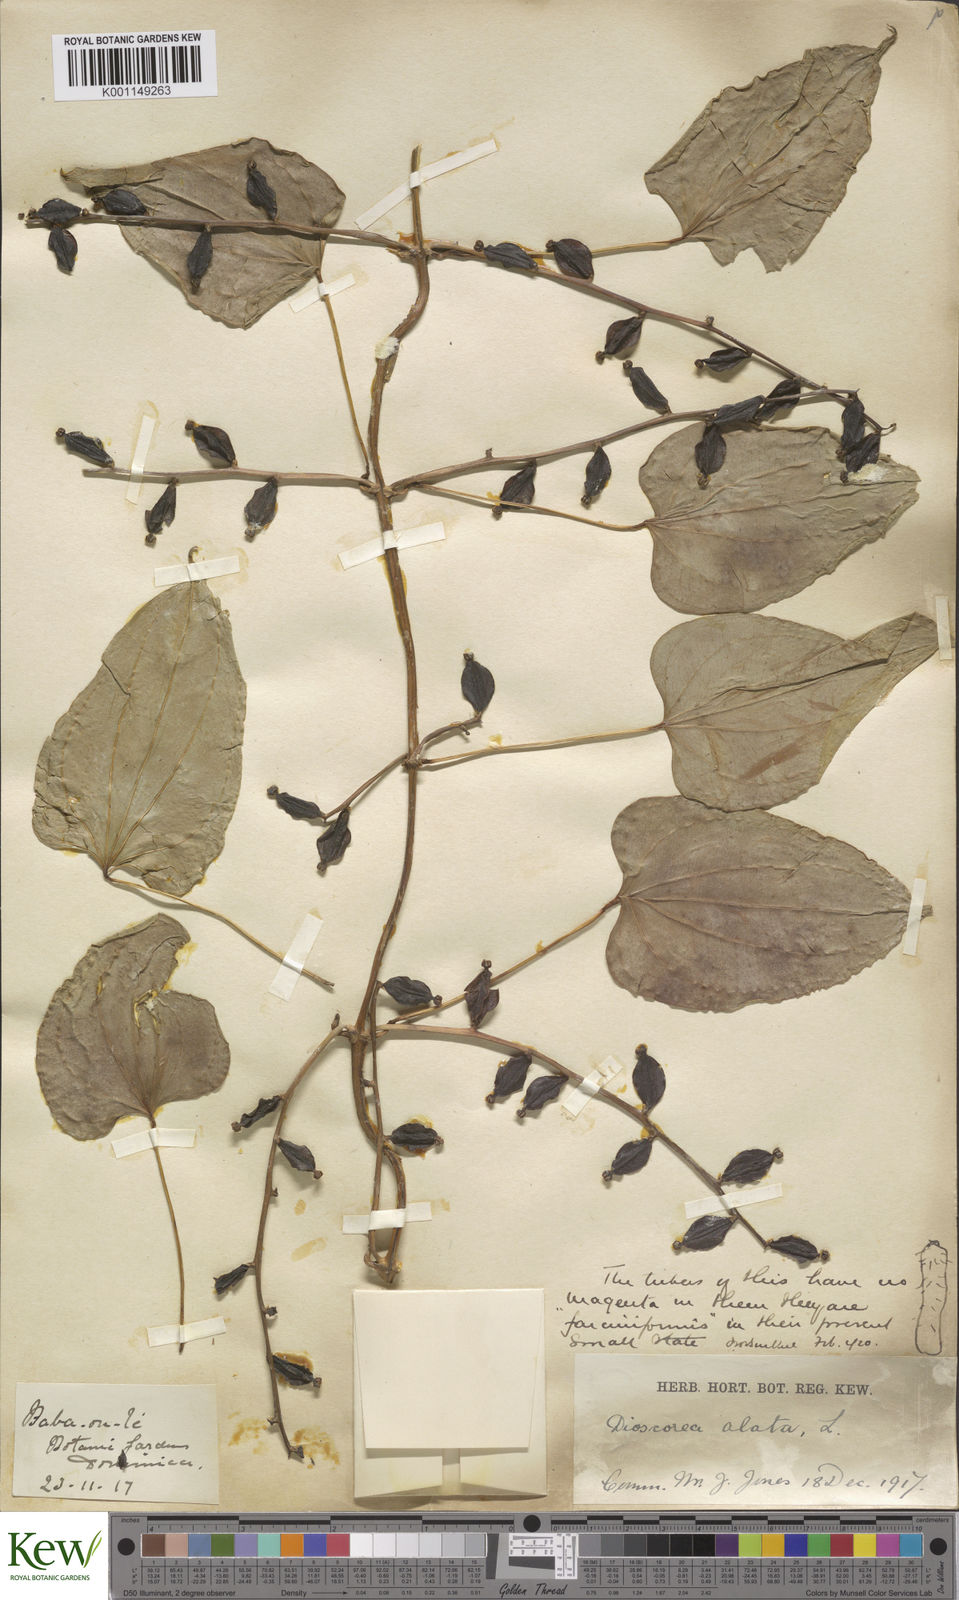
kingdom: Plantae
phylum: Tracheophyta
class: Liliopsida
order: Dioscoreales
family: Dioscoreaceae
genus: Dioscorea
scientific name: Dioscorea alata
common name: Water yam
